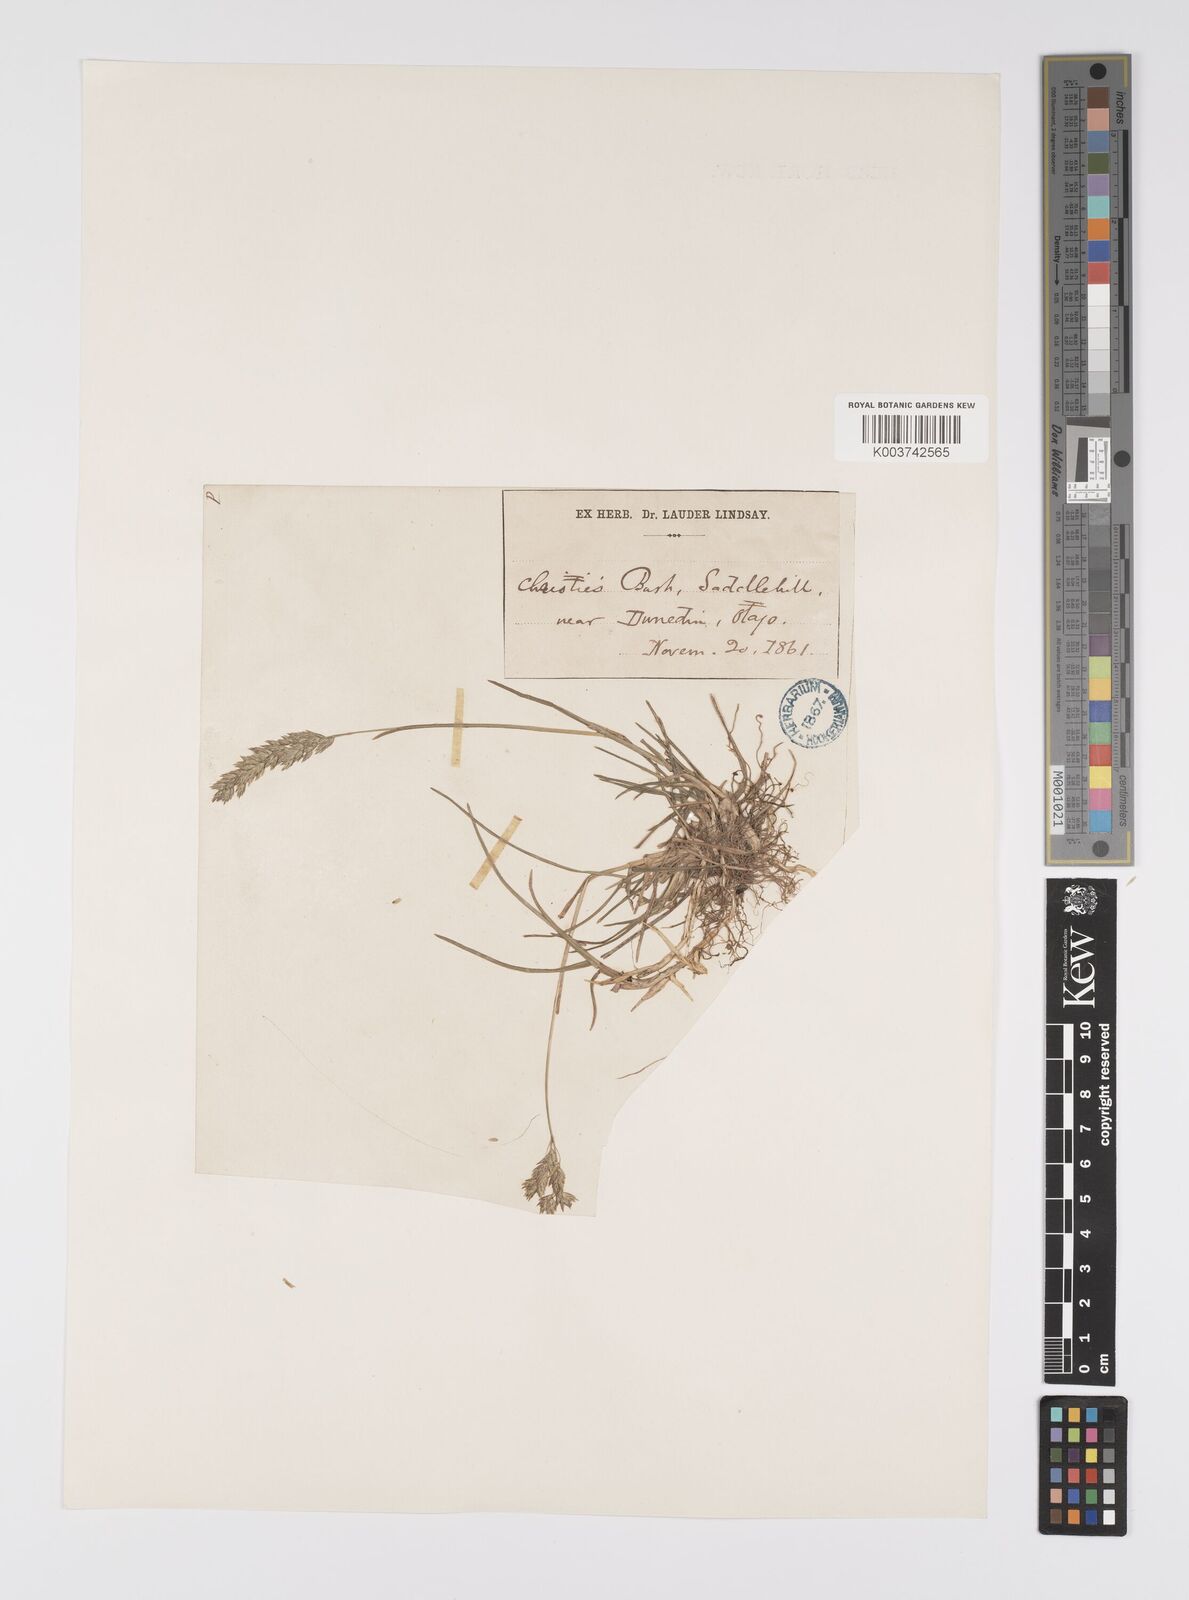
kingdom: Plantae
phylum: Tracheophyta
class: Liliopsida
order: Poales
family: Poaceae
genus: Poa
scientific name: Poa anceps
